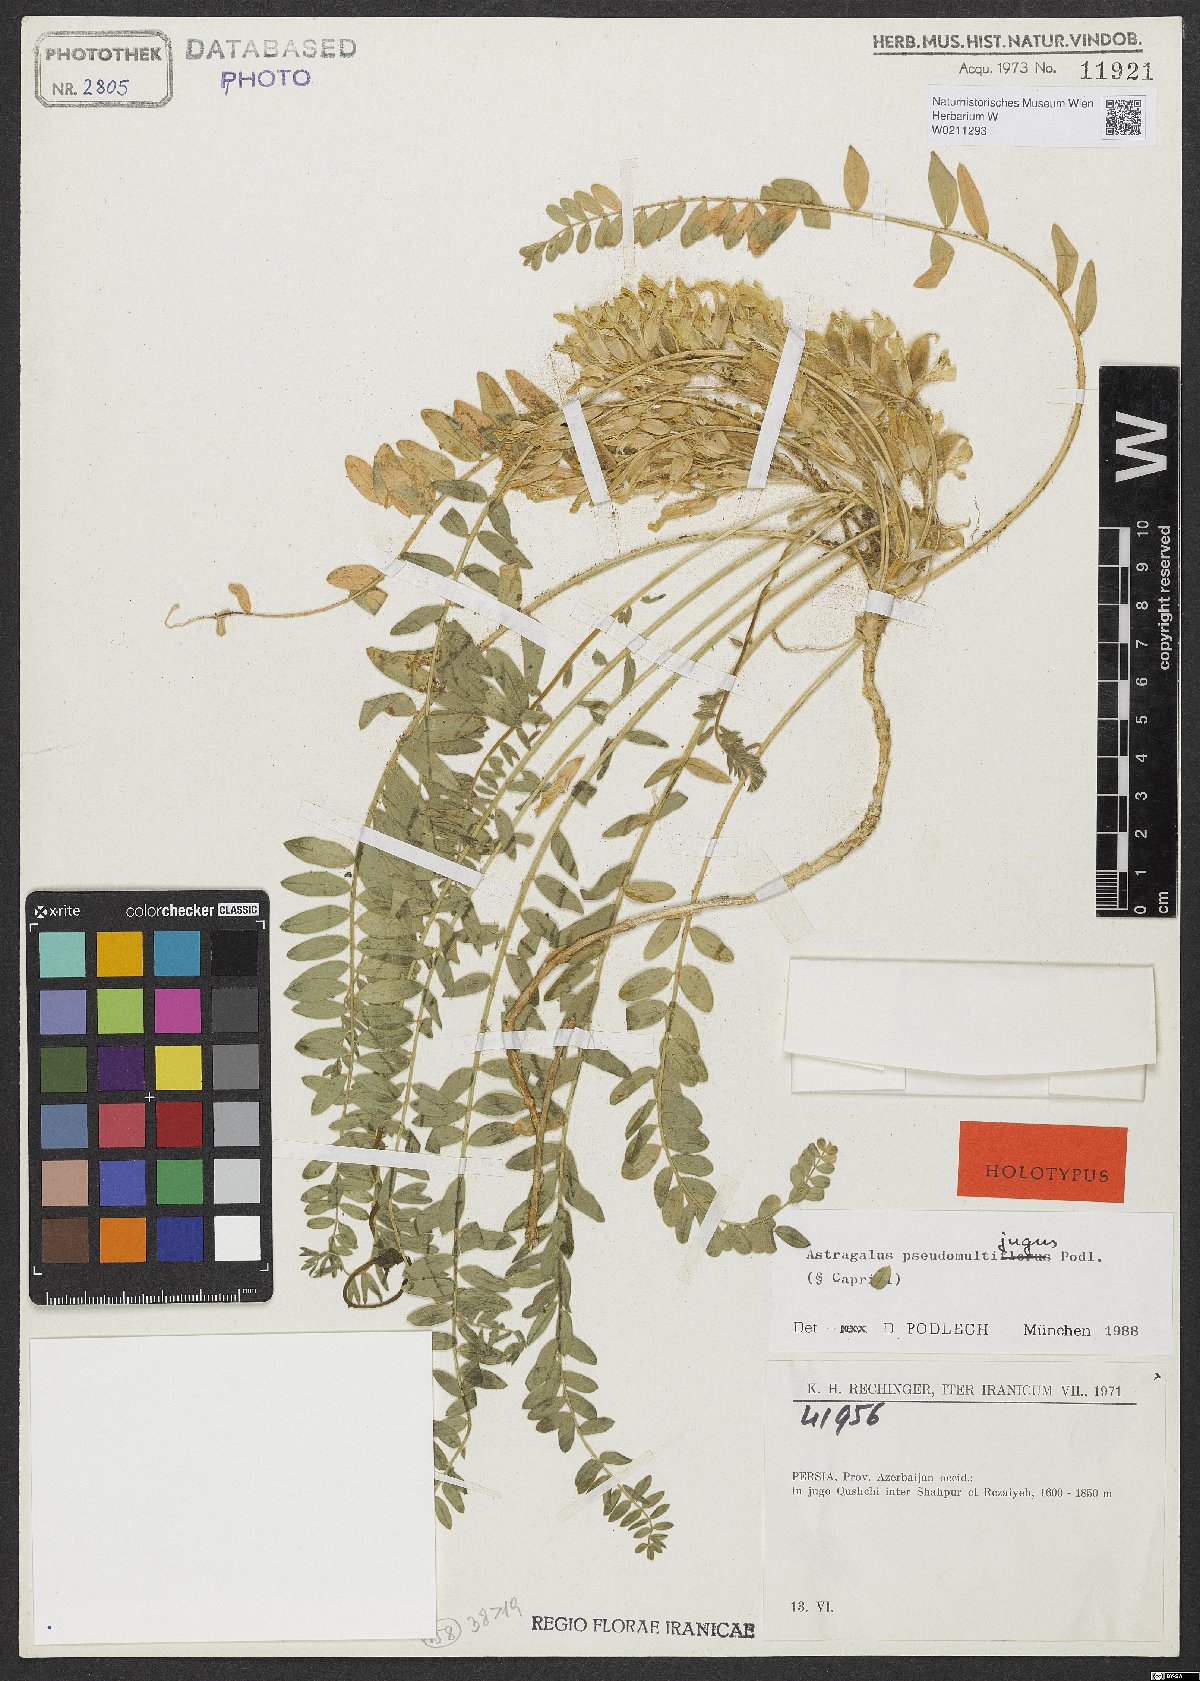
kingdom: Plantae
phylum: Tracheophyta
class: Magnoliopsida
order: Fabales
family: Fabaceae
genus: Astragalus
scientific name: Astragalus pseudomultijugus
